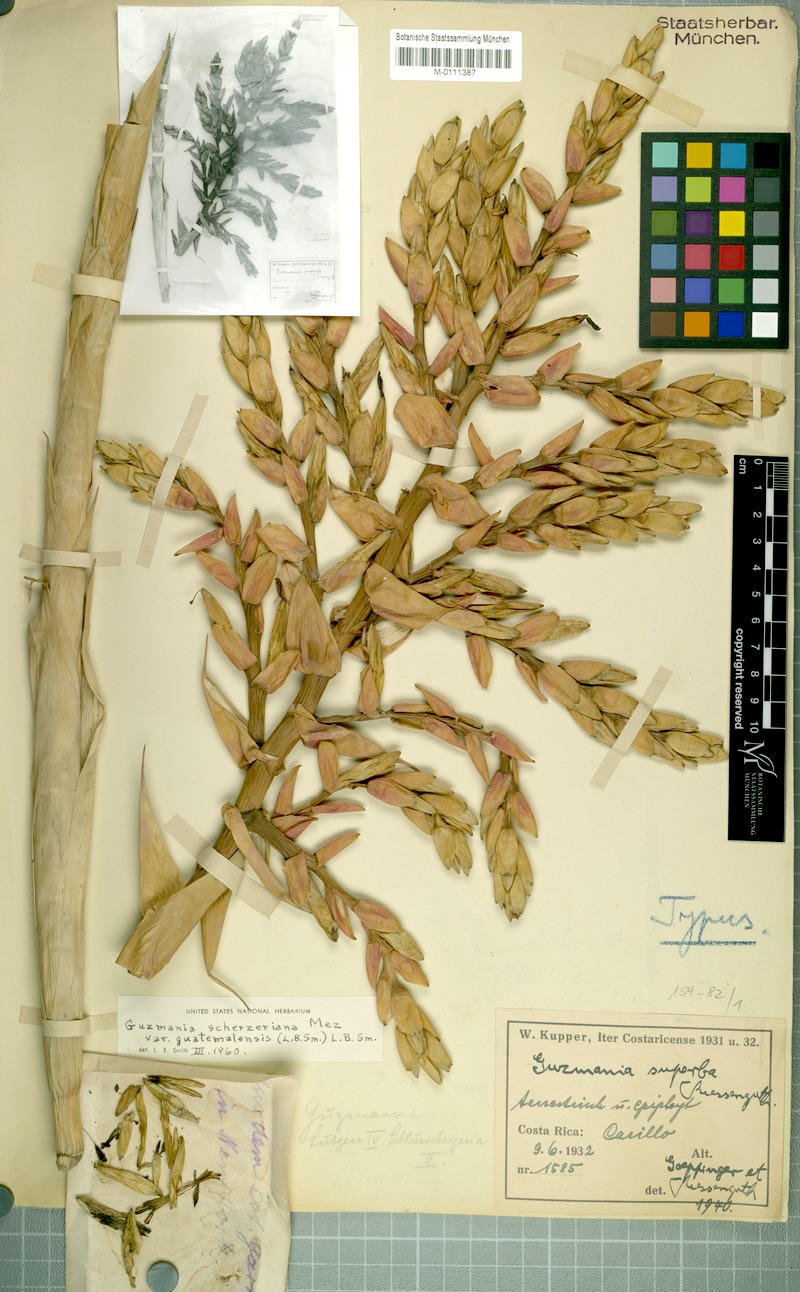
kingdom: Plantae
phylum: Tracheophyta
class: Liliopsida
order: Poales
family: Bromeliaceae
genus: Guzmania
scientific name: Guzmania scherzeriana
